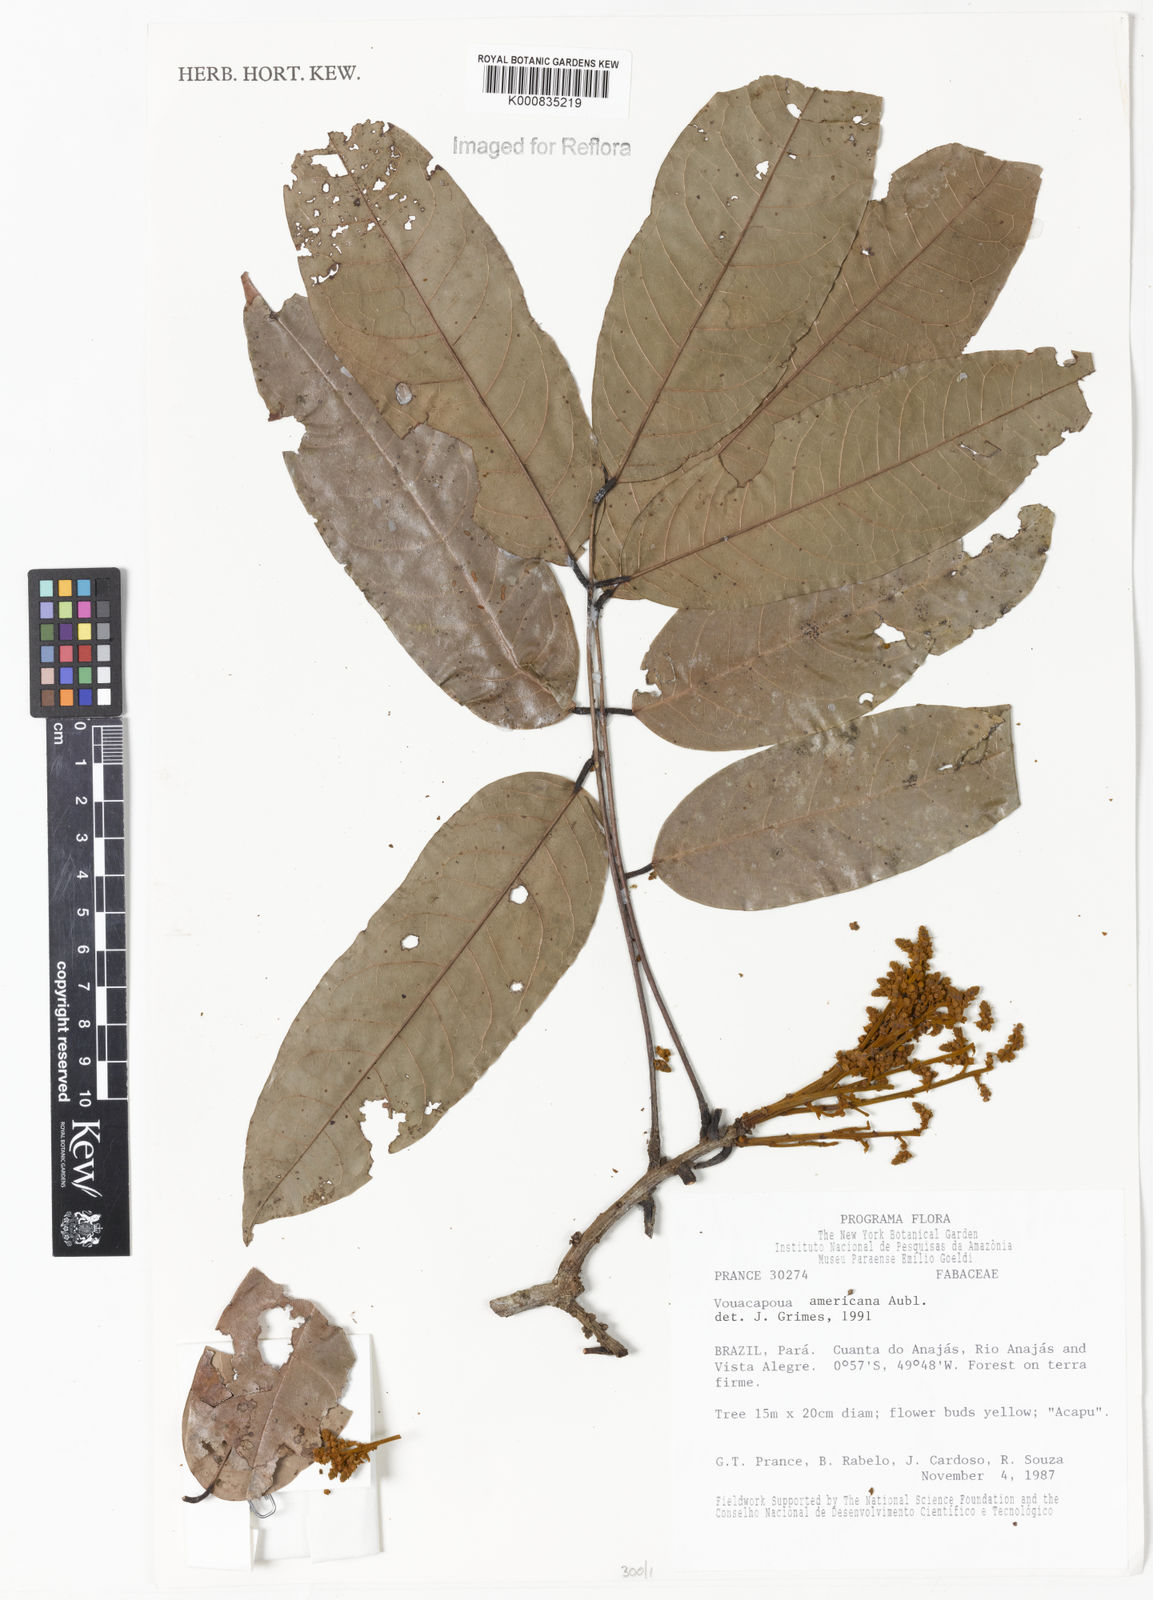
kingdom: Plantae
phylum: Tracheophyta
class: Magnoliopsida
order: Fabales
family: Fabaceae
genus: Vouacapoua
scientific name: Vouacapoua americana
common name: Partridgewood
